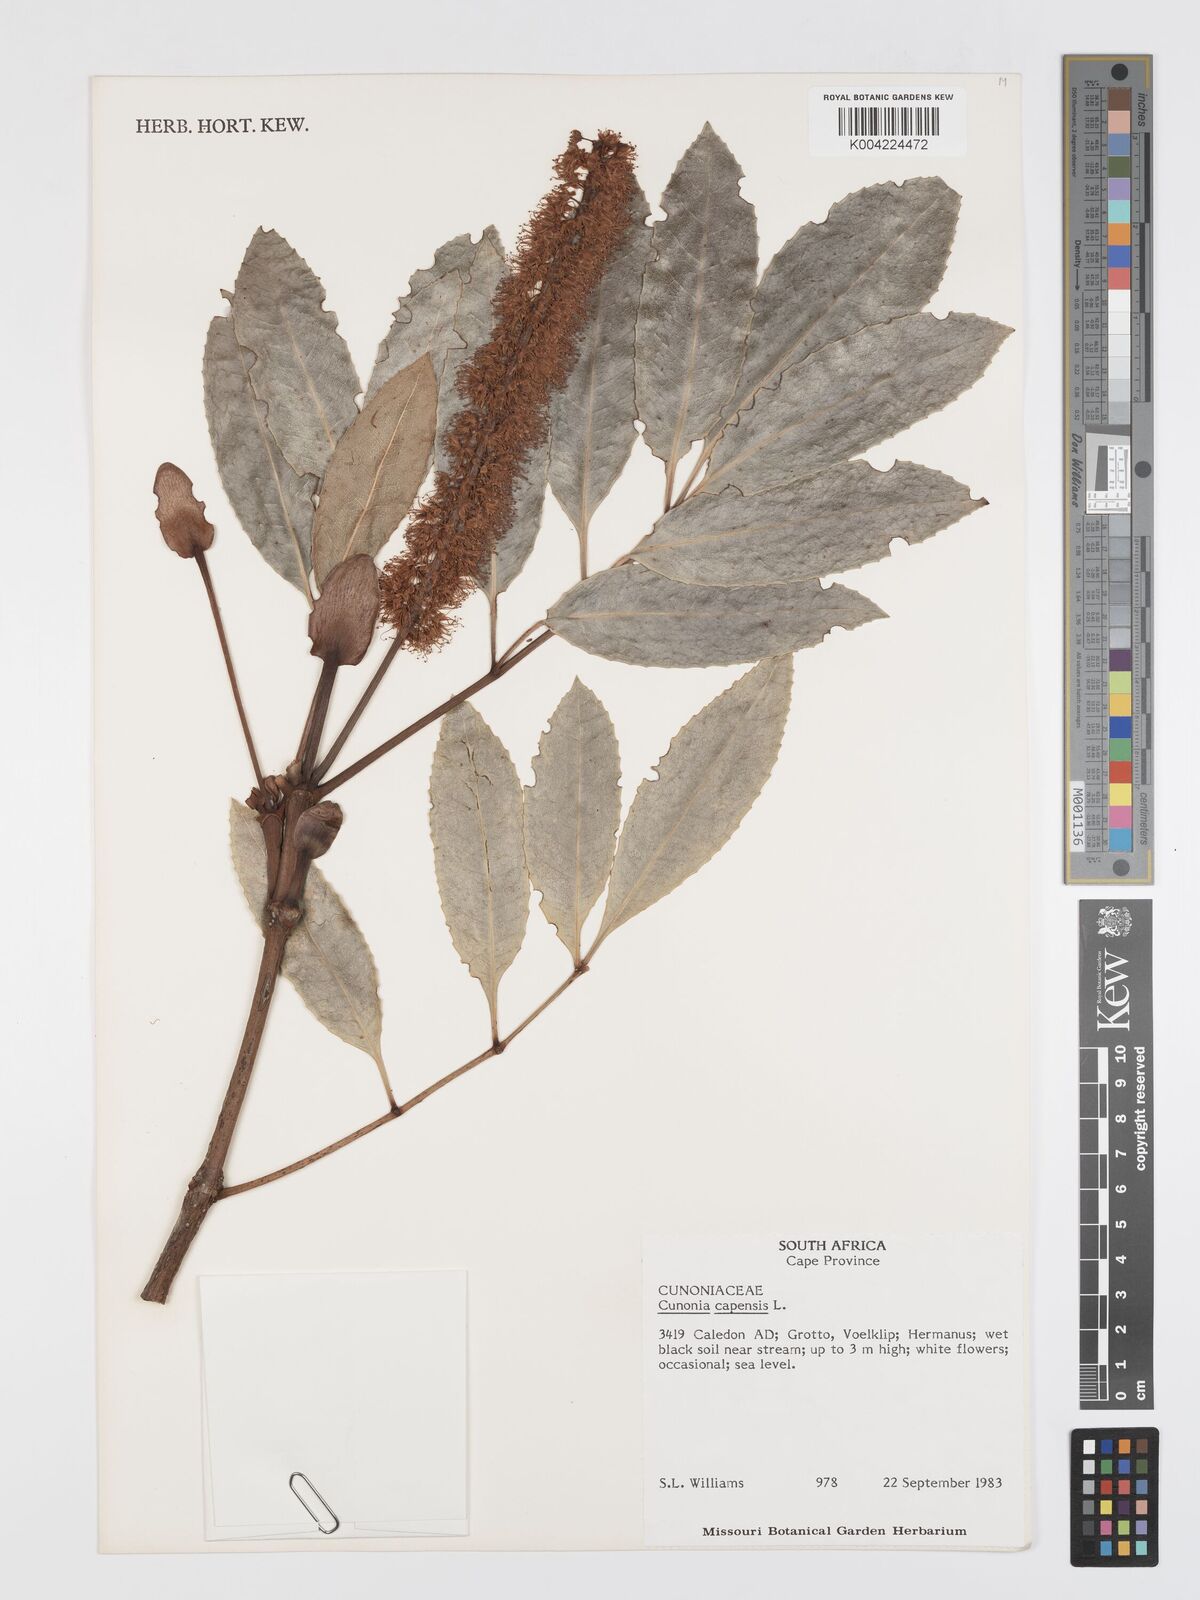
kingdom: Plantae
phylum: Tracheophyta
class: Magnoliopsida
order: Oxalidales
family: Cunoniaceae
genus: Cunonia
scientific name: Cunonia
